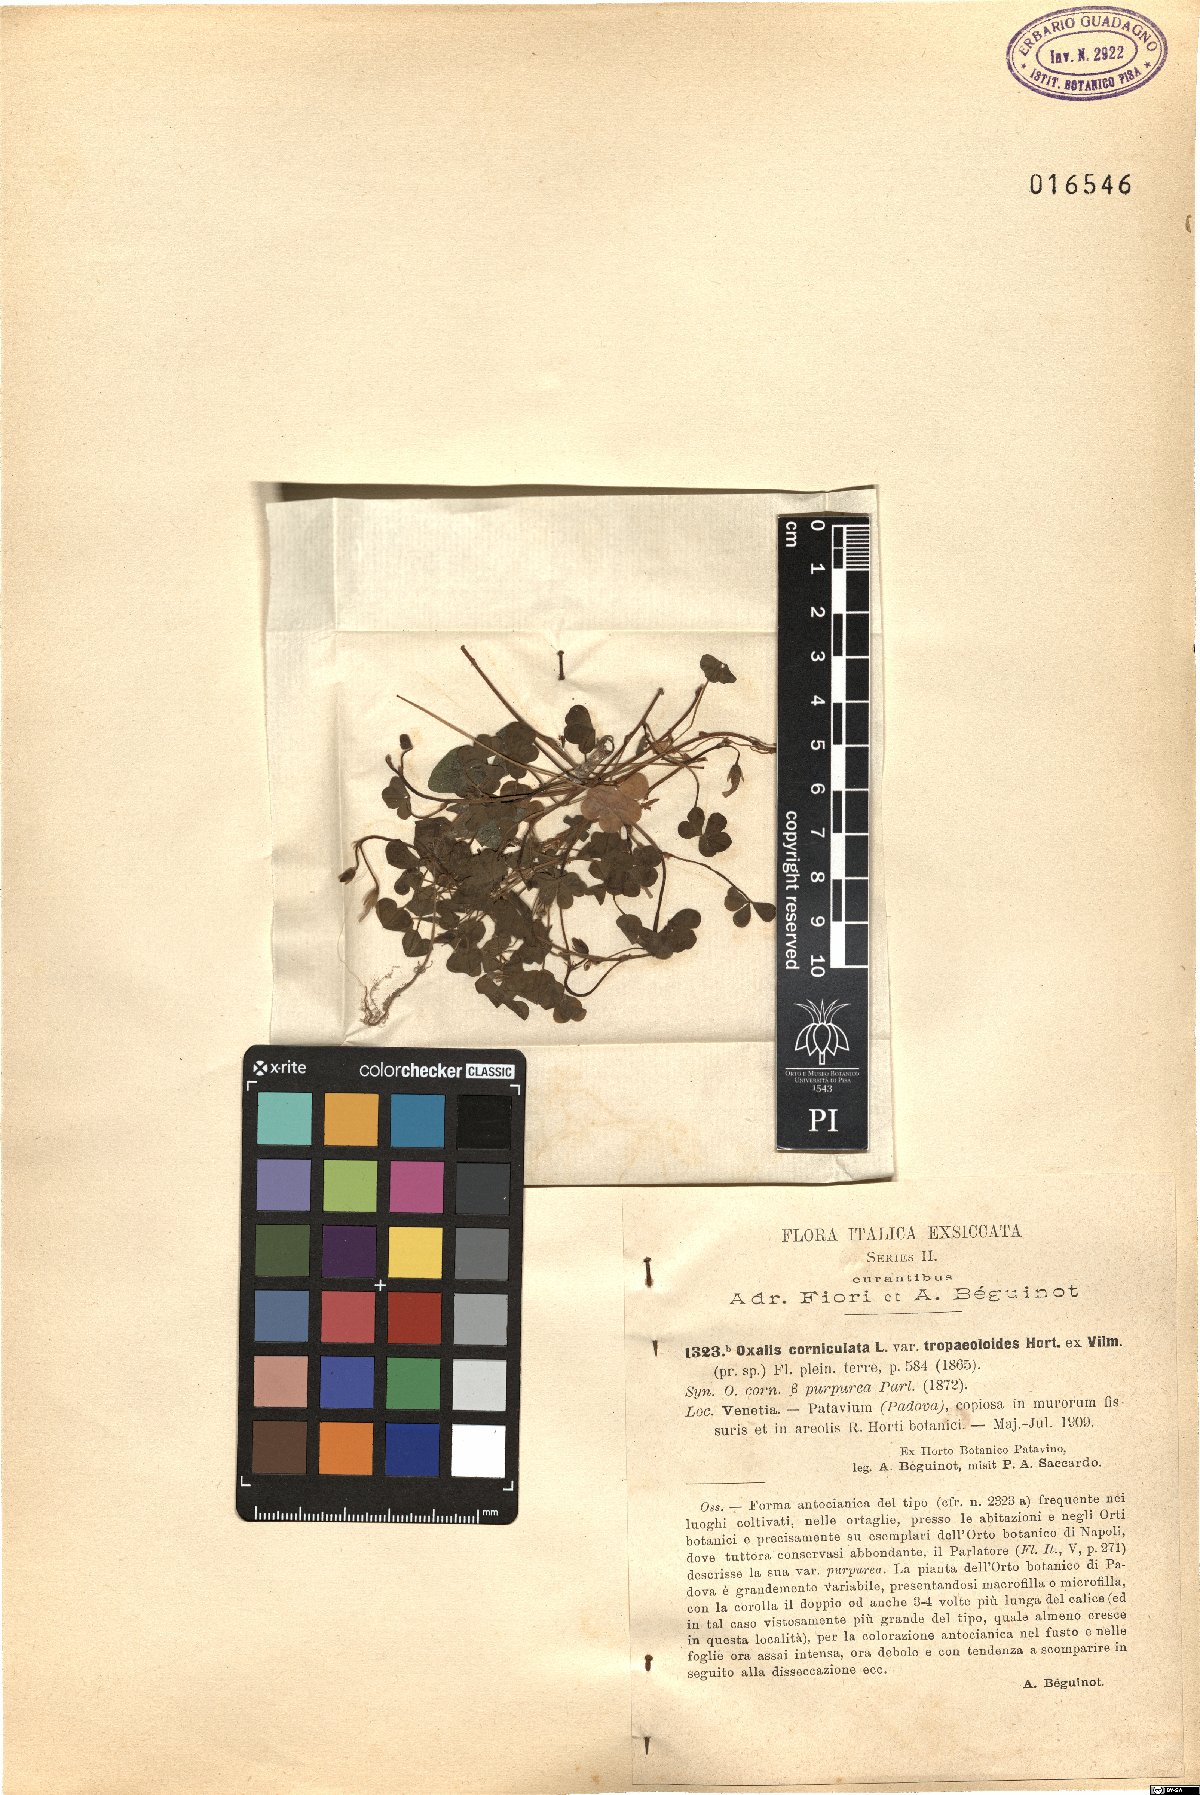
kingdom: Plantae
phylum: Tracheophyta
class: Magnoliopsida
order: Oxalidales
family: Oxalidaceae
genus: Oxalis
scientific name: Oxalis corniculata
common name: Procumbent yellow-sorrel
